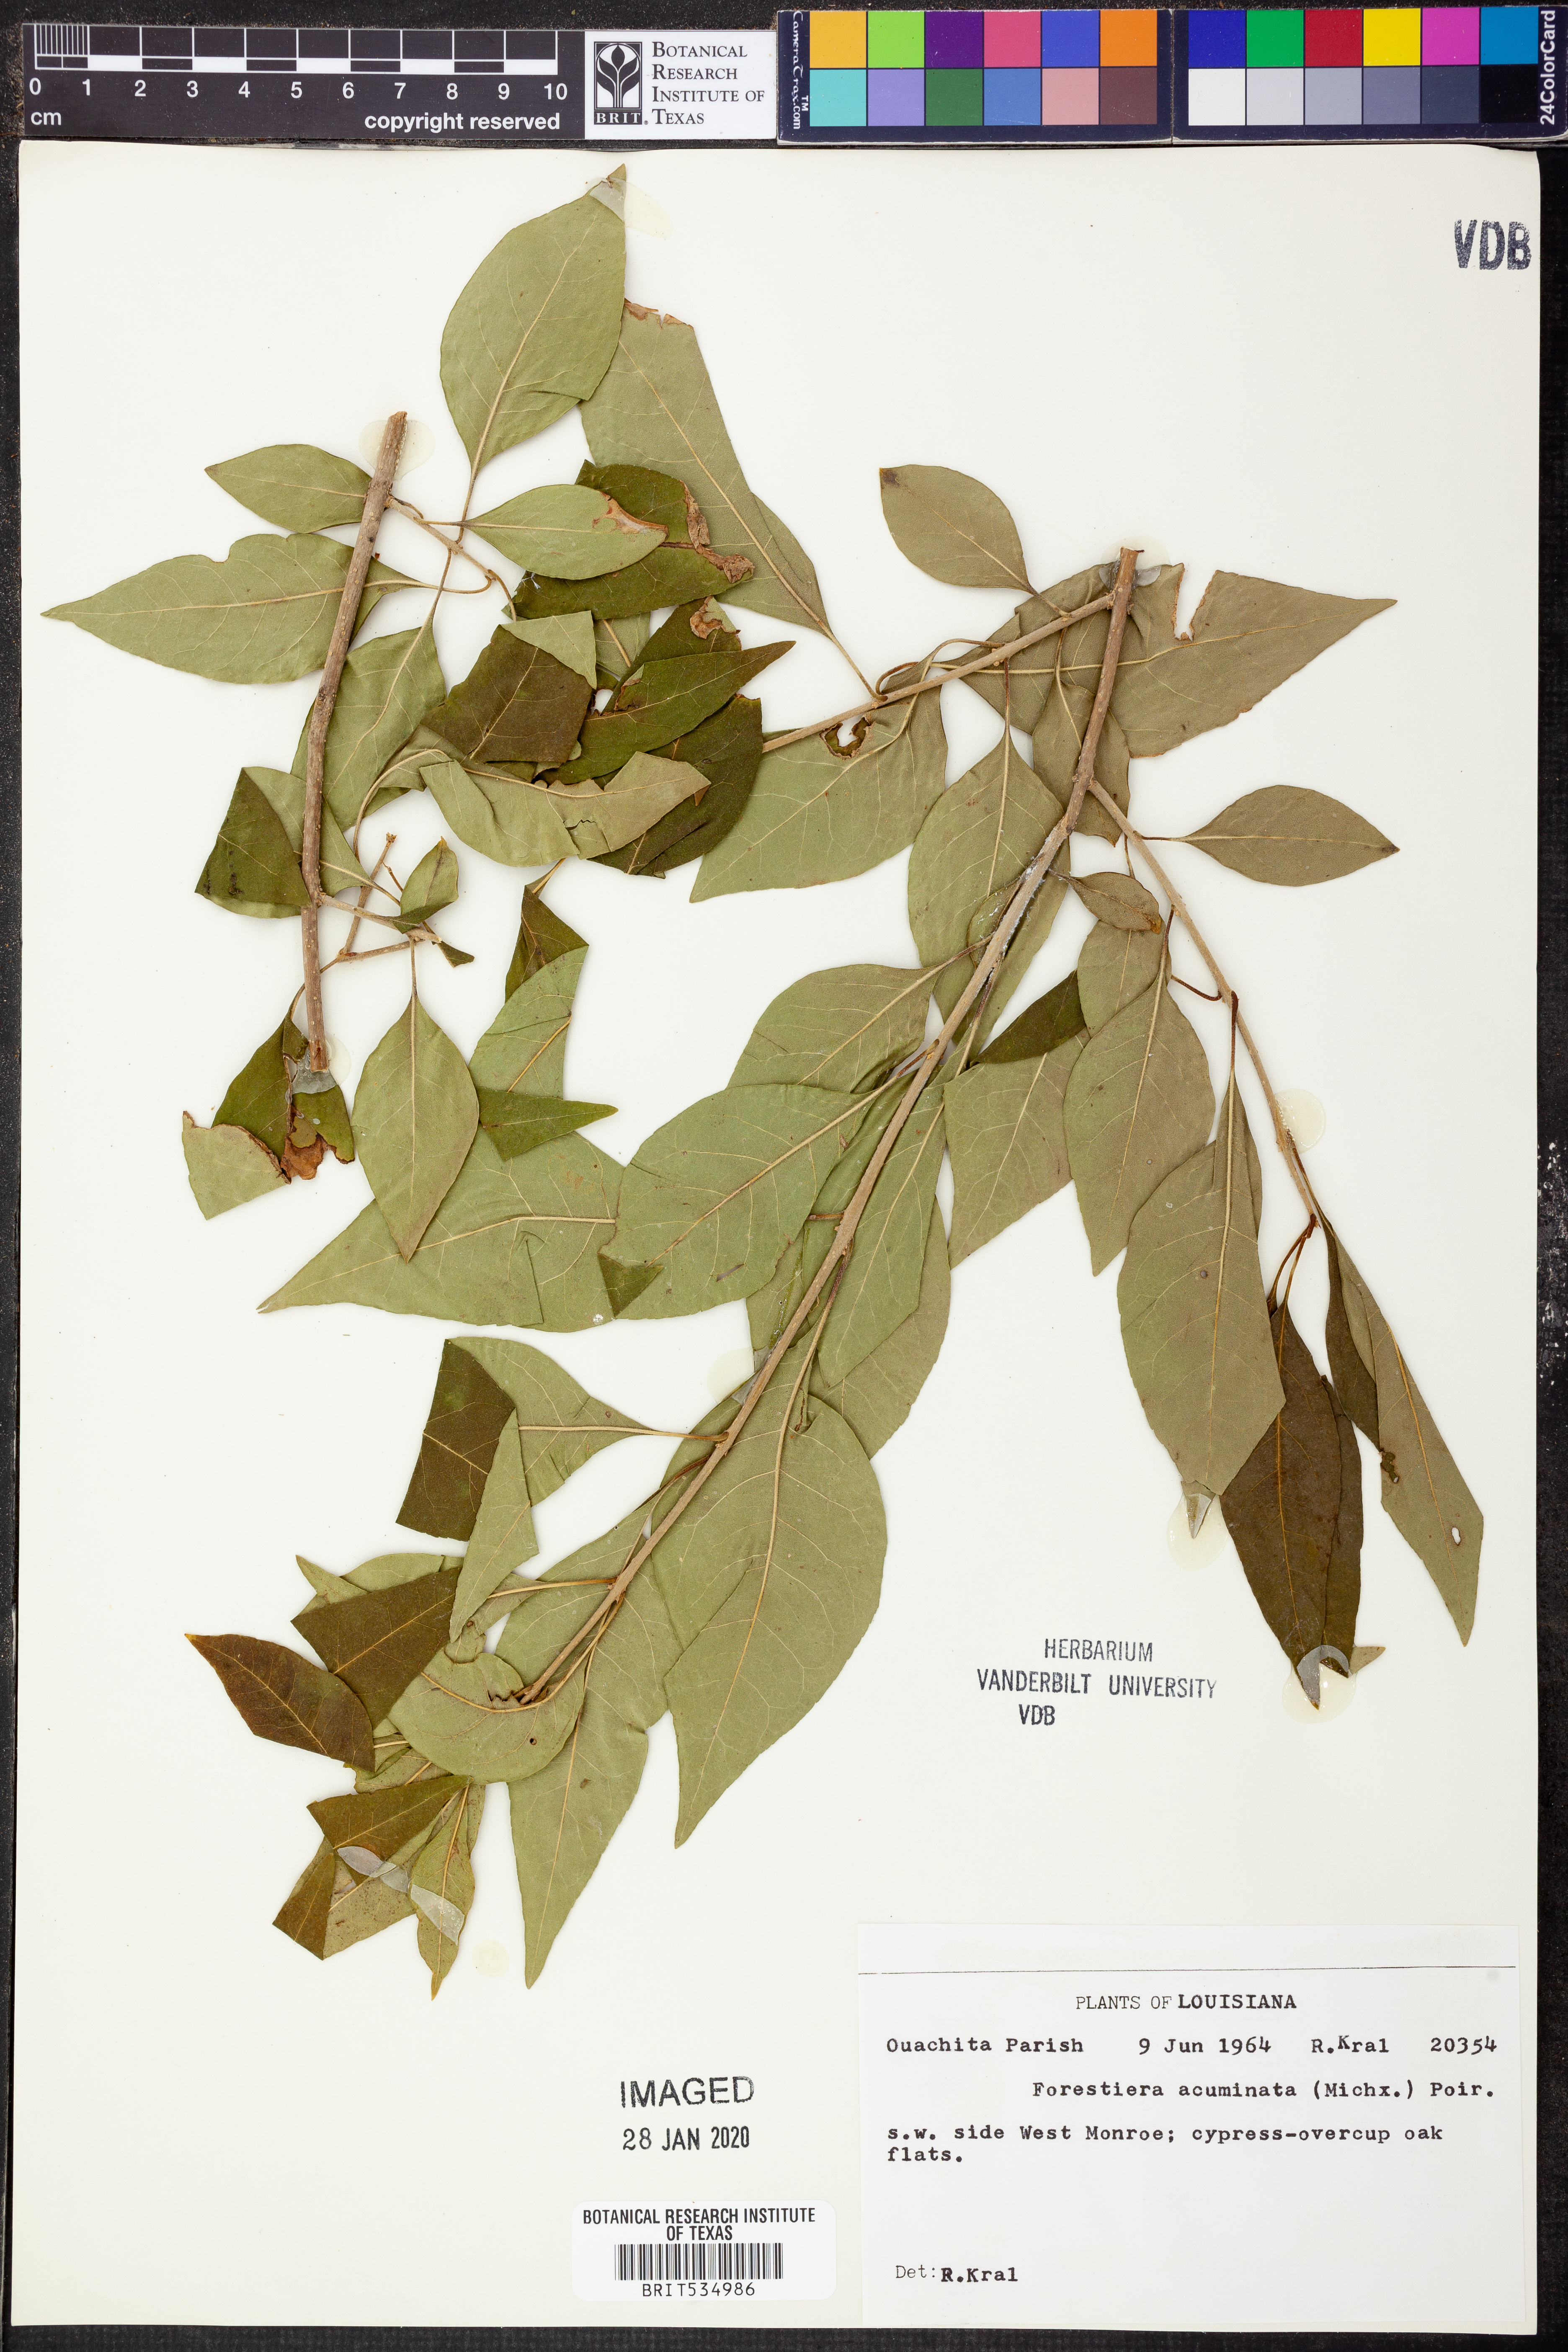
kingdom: Plantae
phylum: Tracheophyta
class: Magnoliopsida
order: Lamiales
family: Oleaceae
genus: Forestiera
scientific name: Forestiera acuminata
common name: Swamp-privet
